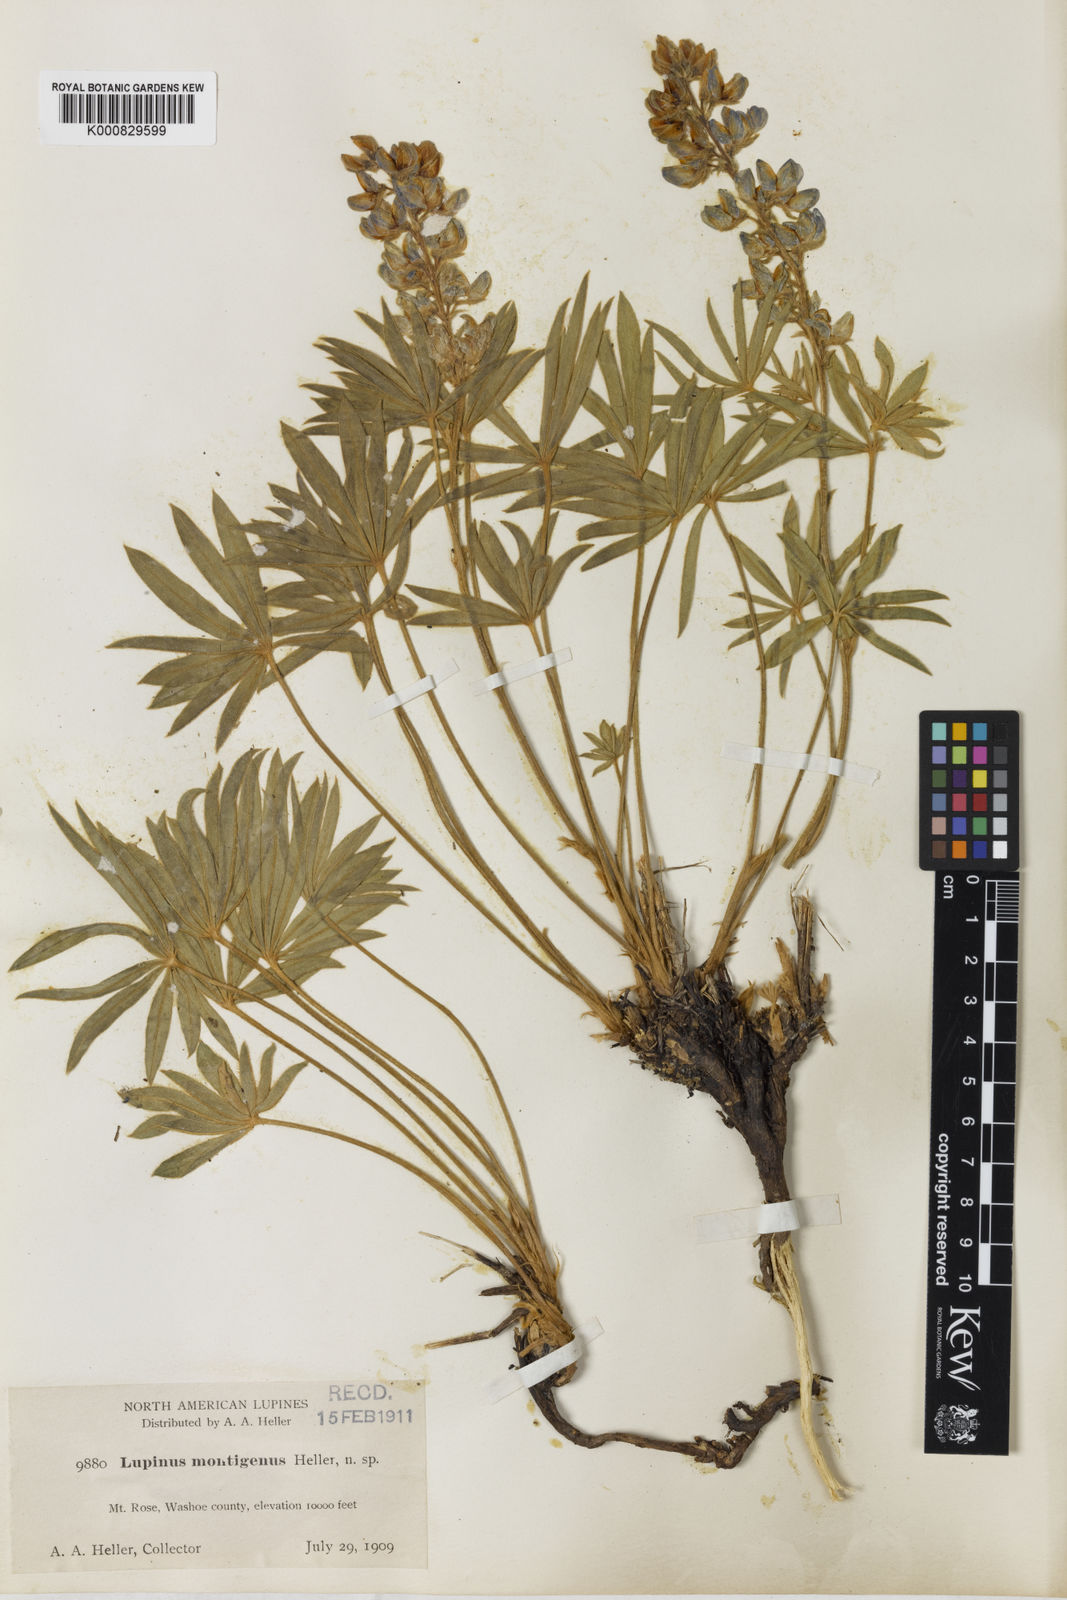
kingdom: Plantae
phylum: Tracheophyta
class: Magnoliopsida
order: Fabales
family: Fabaceae
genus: Lupinus
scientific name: Lupinus caudatus
